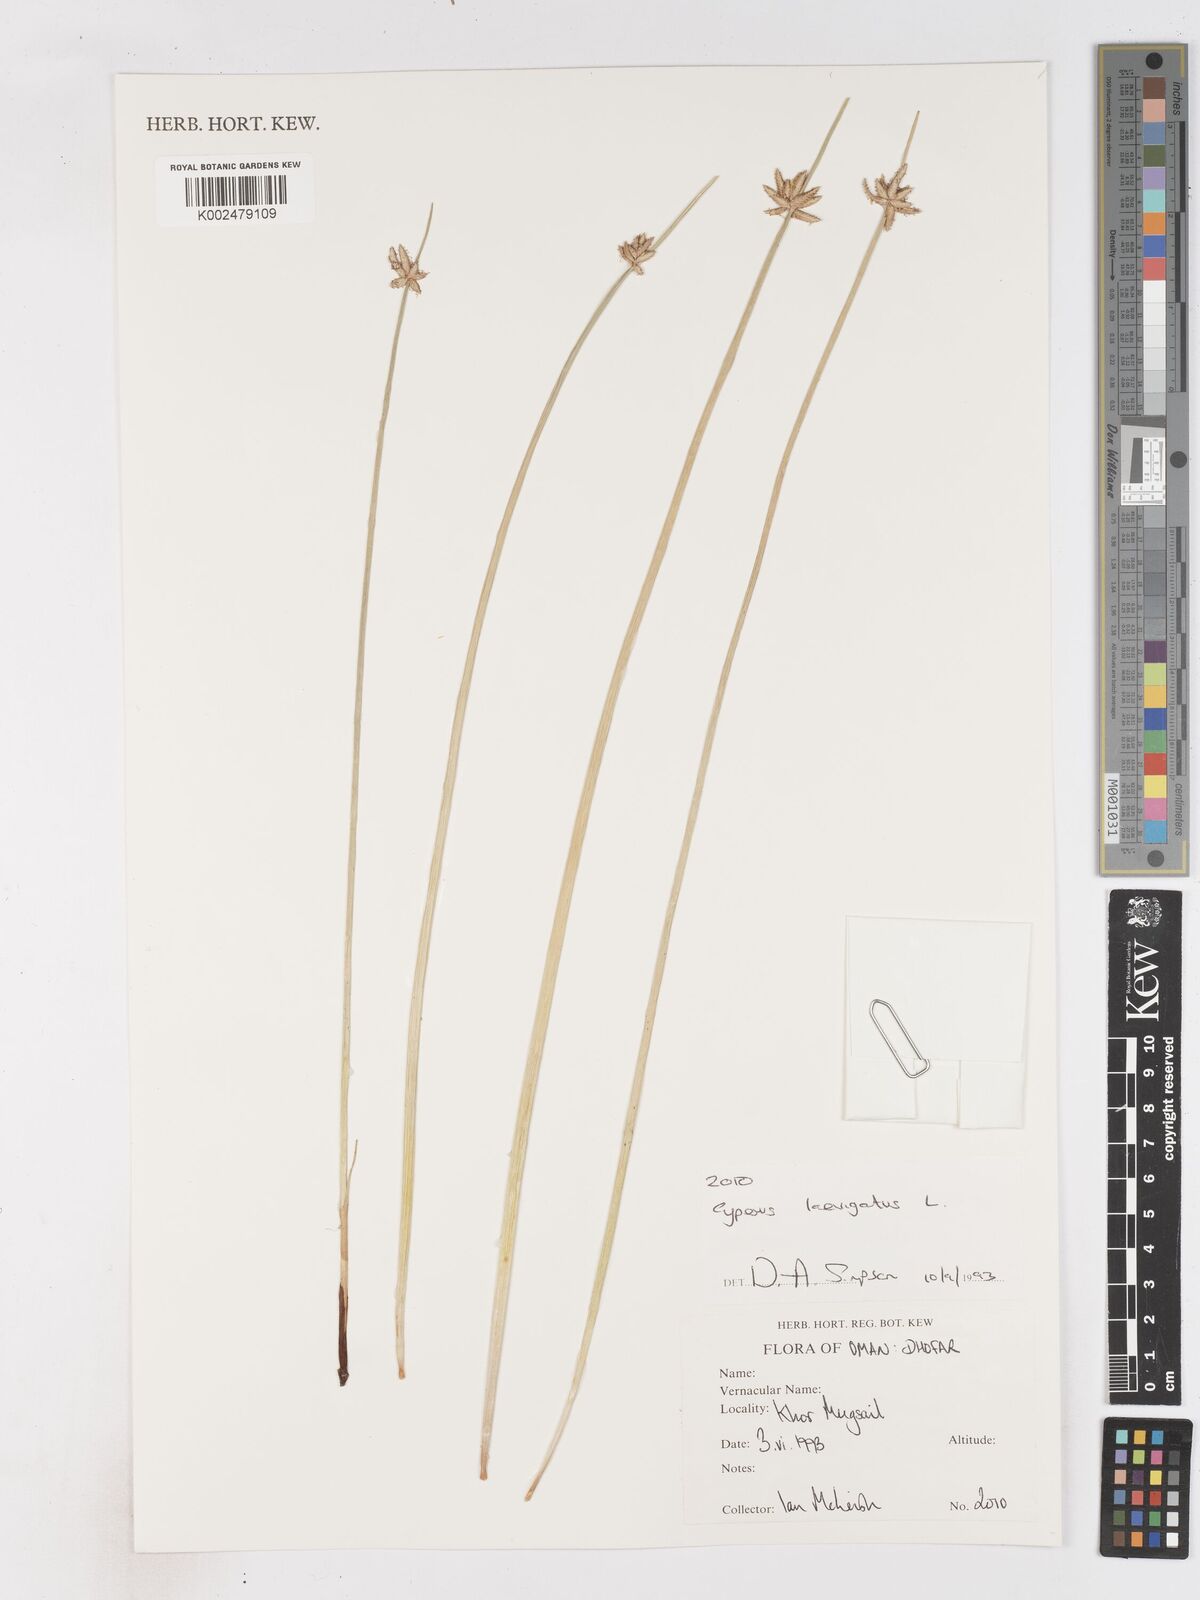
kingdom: Plantae
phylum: Tracheophyta
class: Liliopsida
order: Poales
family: Cyperaceae
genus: Cyperus
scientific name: Cyperus laevigatus
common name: Smooth flat sedge
